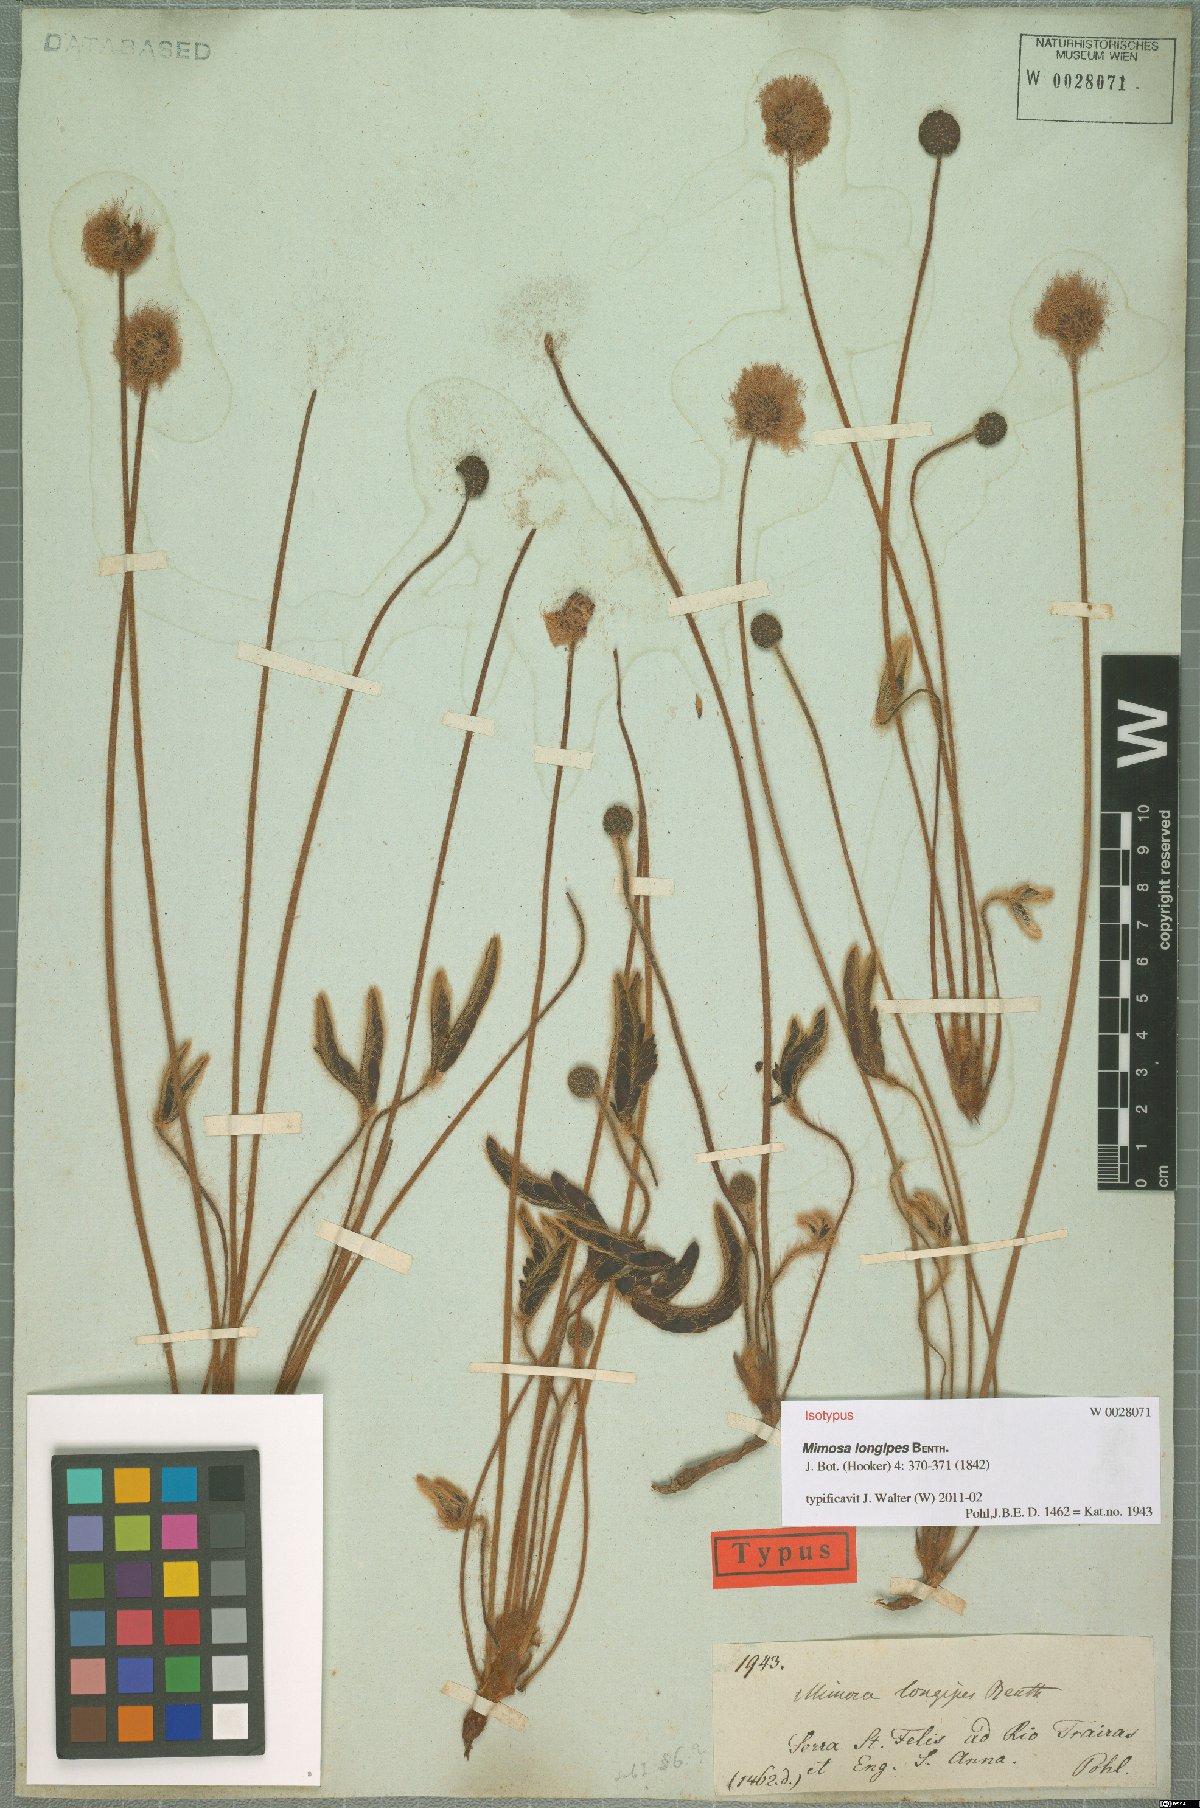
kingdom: Plantae
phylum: Tracheophyta
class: Magnoliopsida
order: Fabales
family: Fabaceae
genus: Mimosa
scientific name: Mimosa longipes
